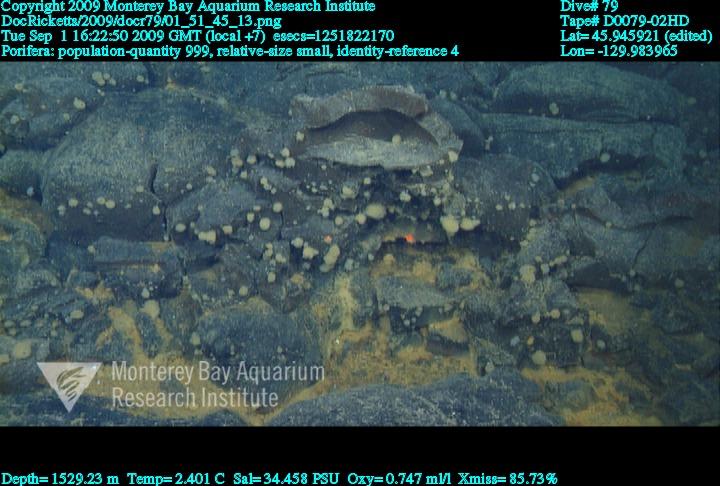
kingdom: Animalia
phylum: Porifera
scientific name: Porifera
